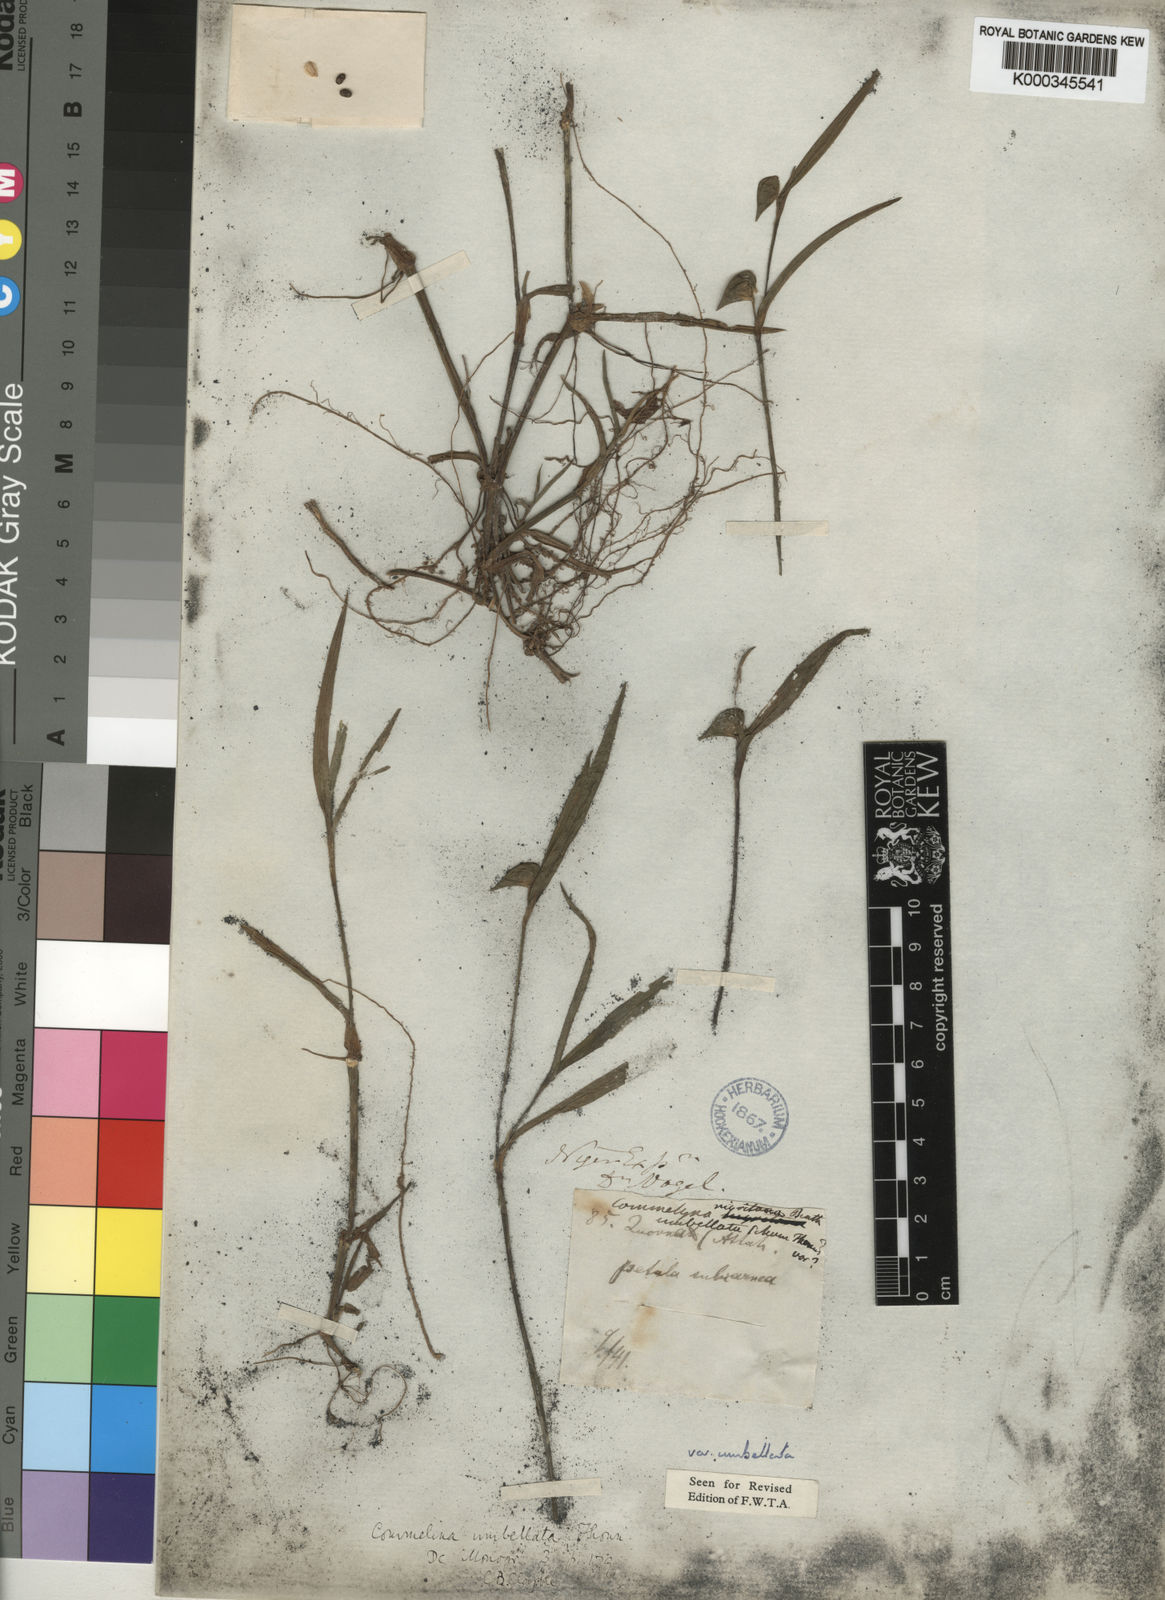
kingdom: Plantae
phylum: Tracheophyta
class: Liliopsida
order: Commelinales
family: Commelinaceae
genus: Commelina
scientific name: Commelina nigritana
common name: African dayflower
